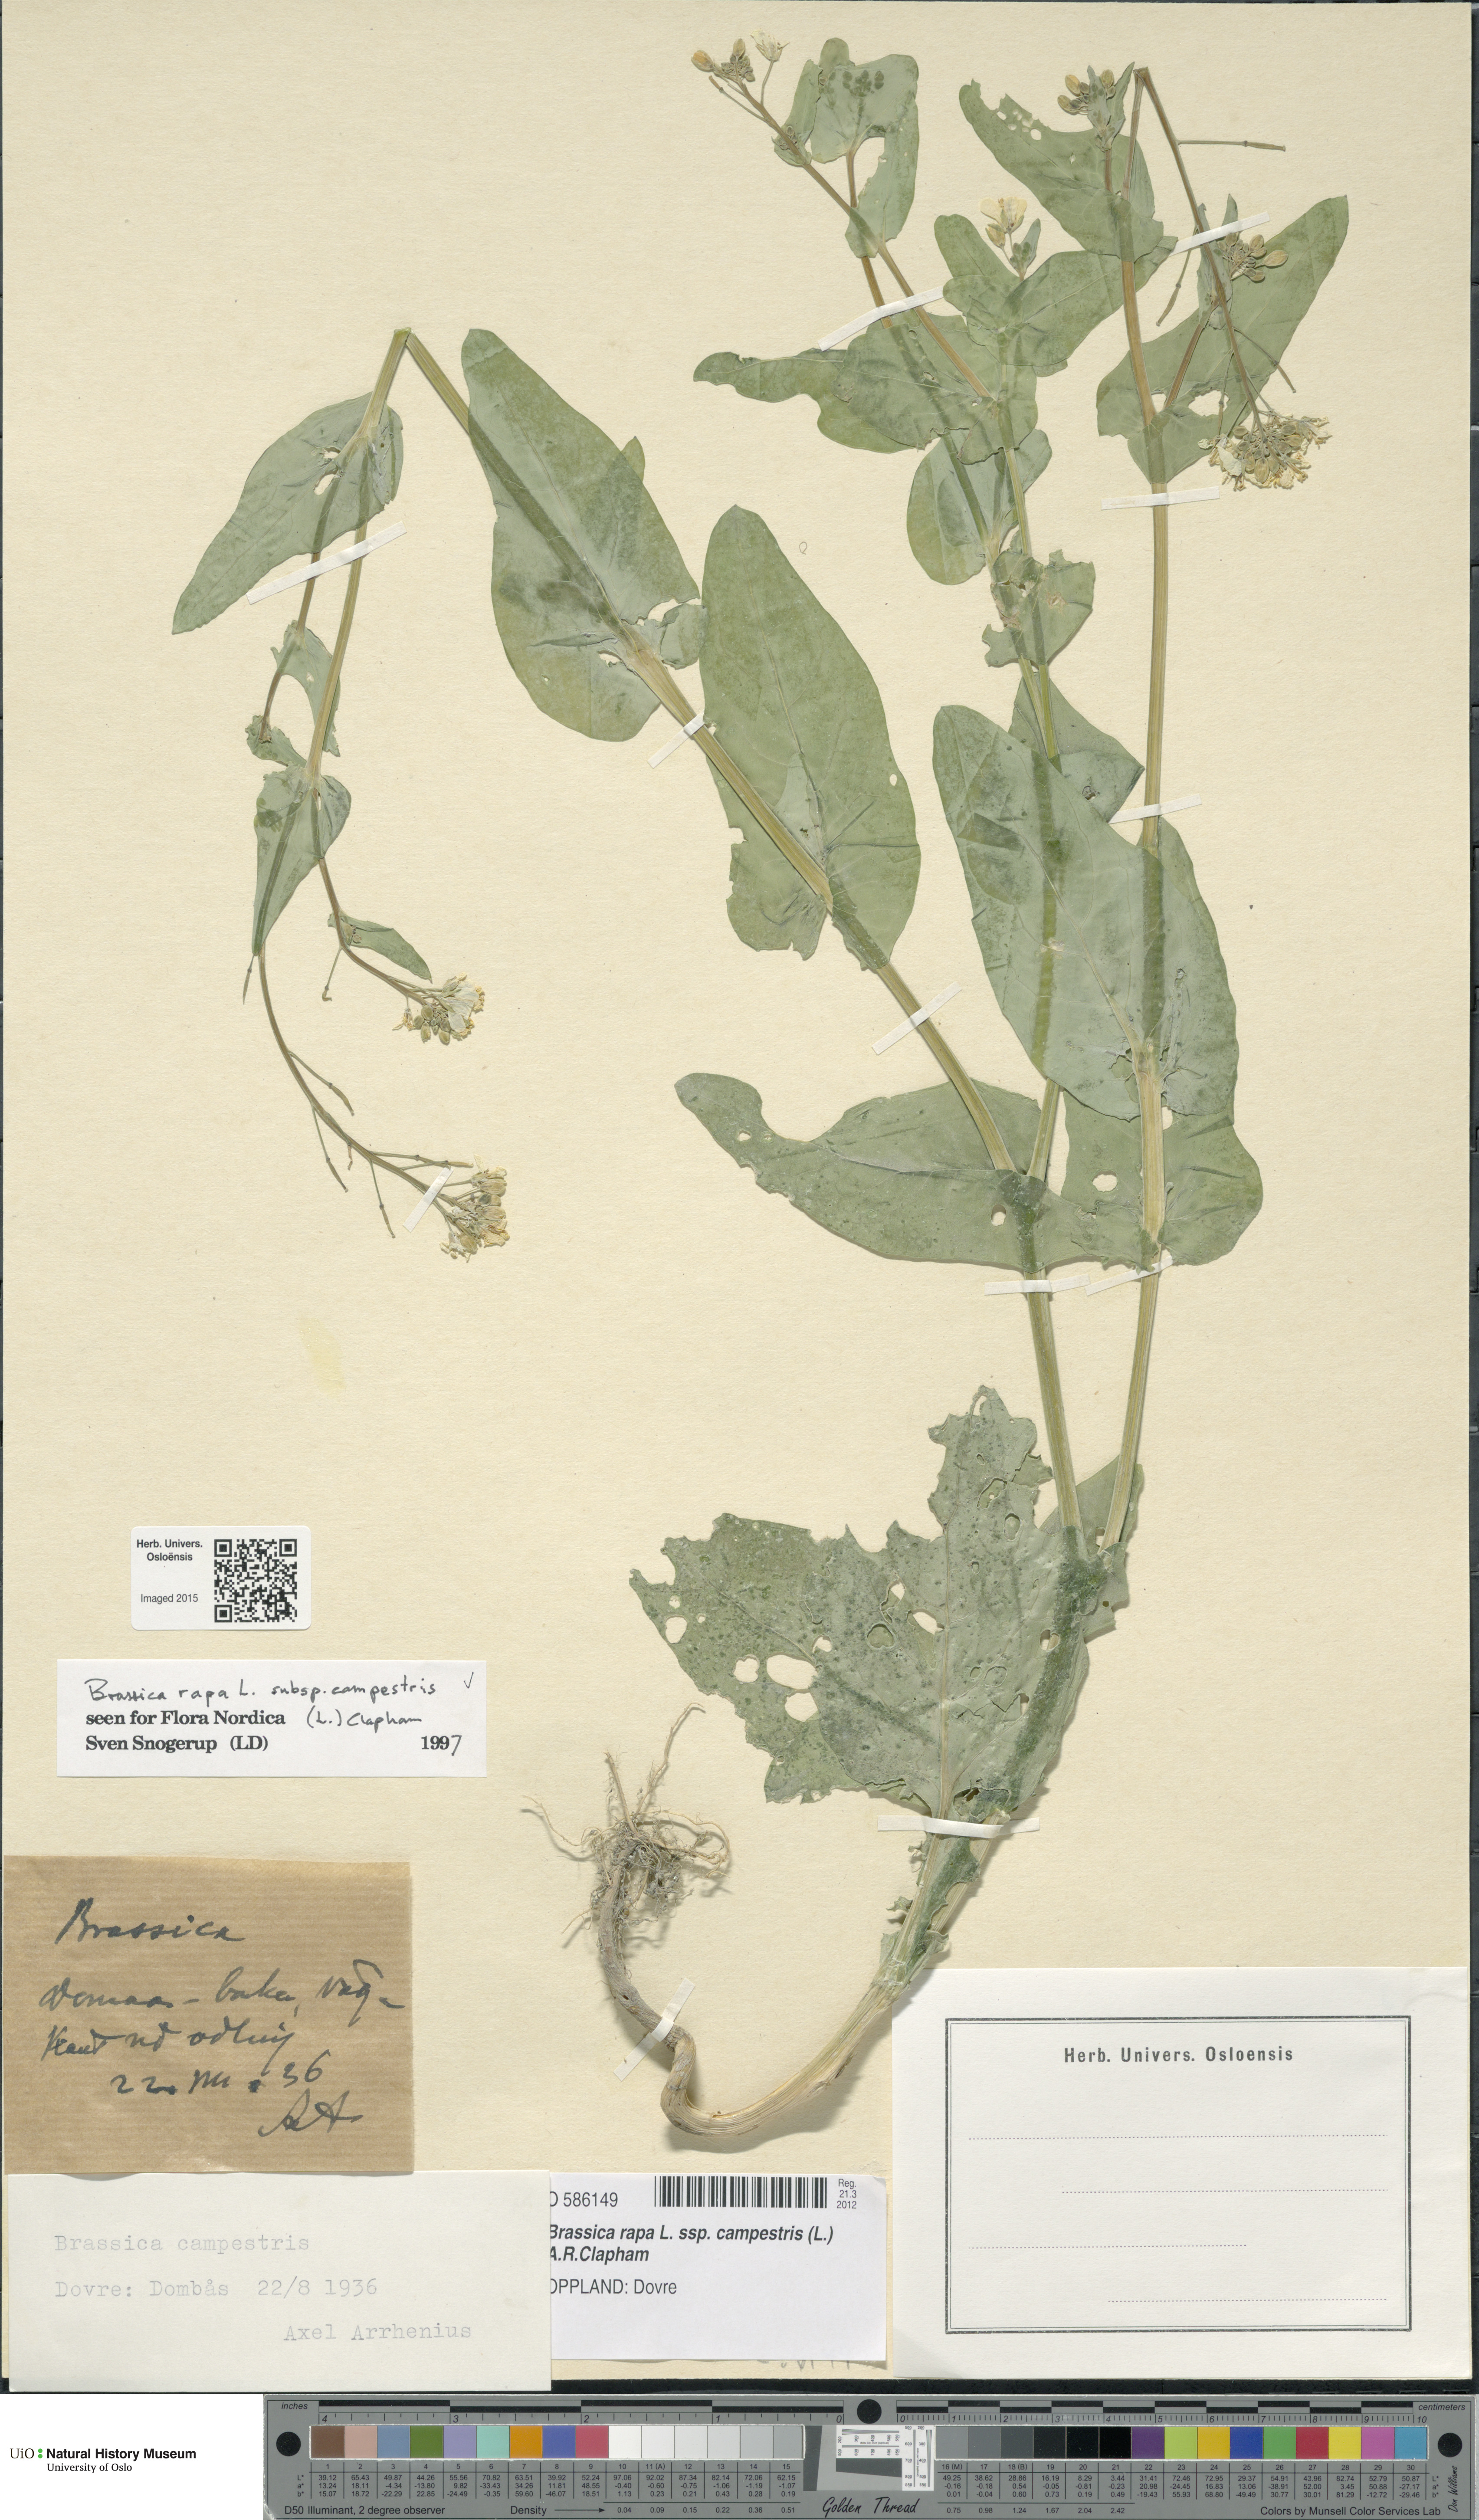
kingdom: Plantae
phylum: Tracheophyta
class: Magnoliopsida
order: Brassicales
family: Brassicaceae
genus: Brassica
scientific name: Brassica rapa
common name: Field mustard
